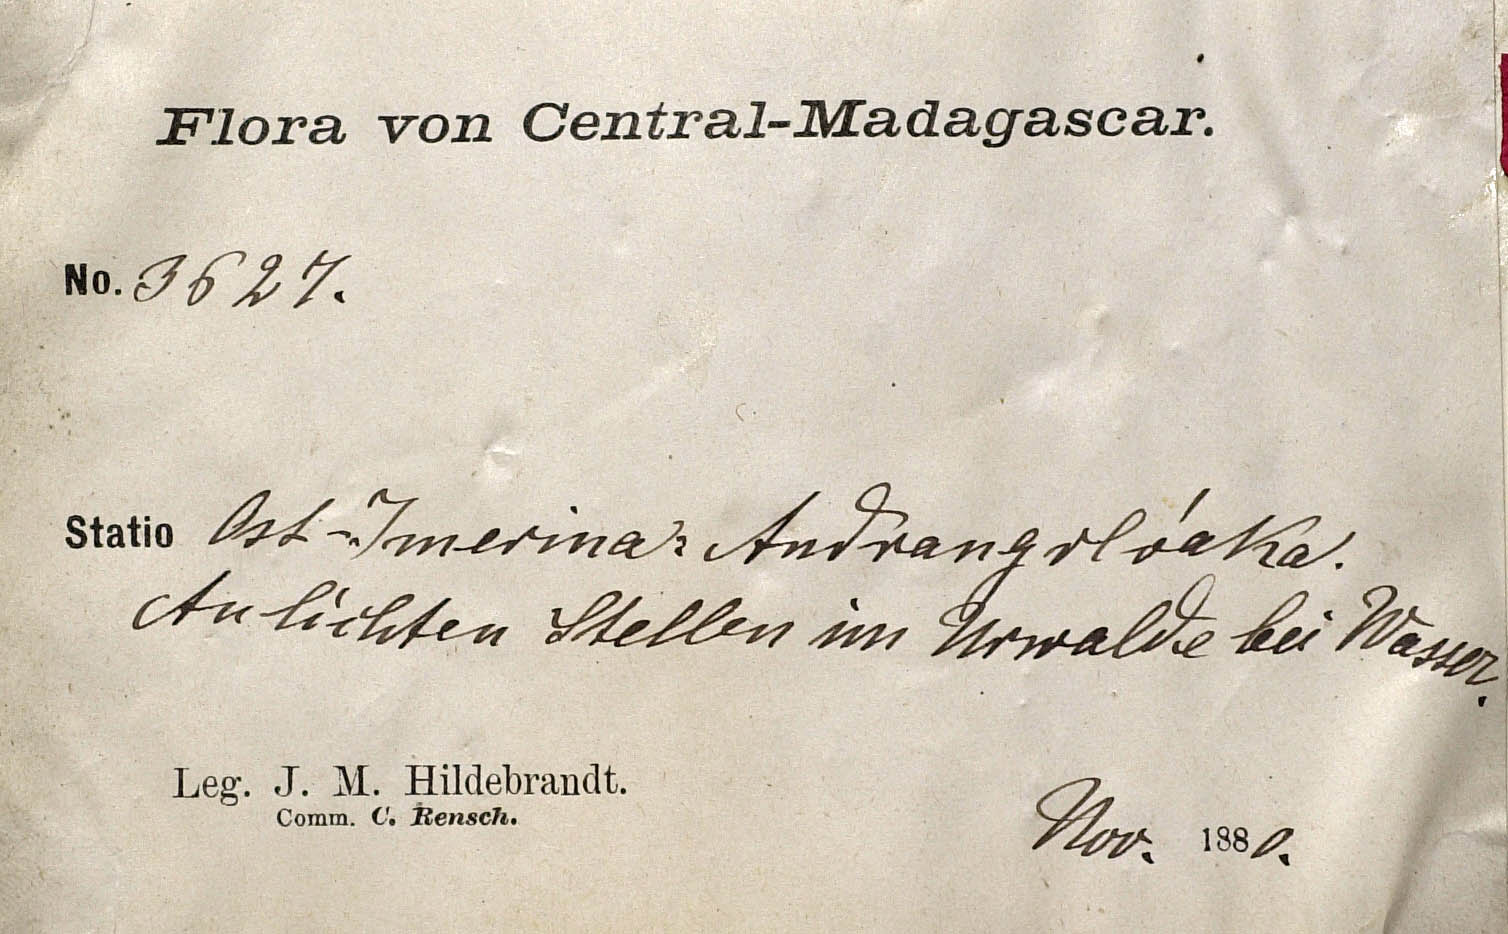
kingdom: Plantae
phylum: Tracheophyta
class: Magnoliopsida
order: Asterales
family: Asteraceae
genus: Conyza
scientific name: Conyza longipedunculata
